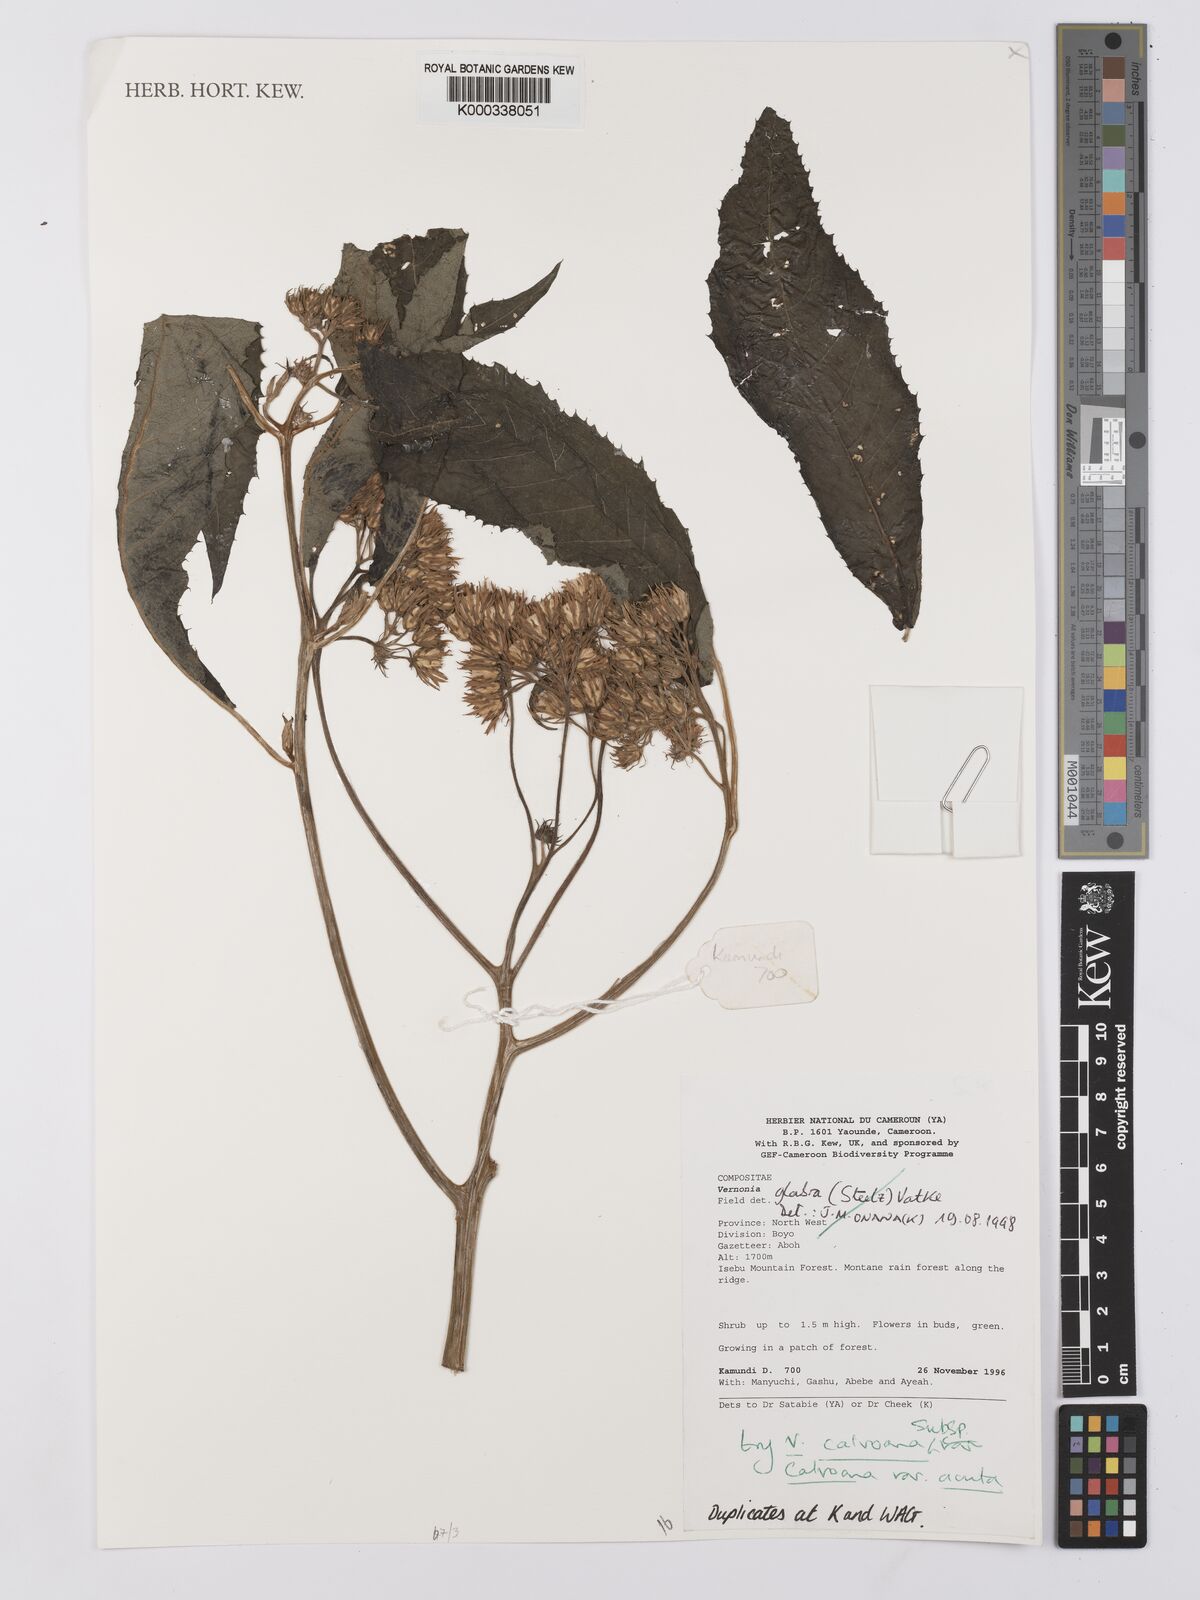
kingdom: Plantae
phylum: Tracheophyta
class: Magnoliopsida
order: Asterales
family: Asteraceae
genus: Baccharoides
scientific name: Baccharoides calvoana
